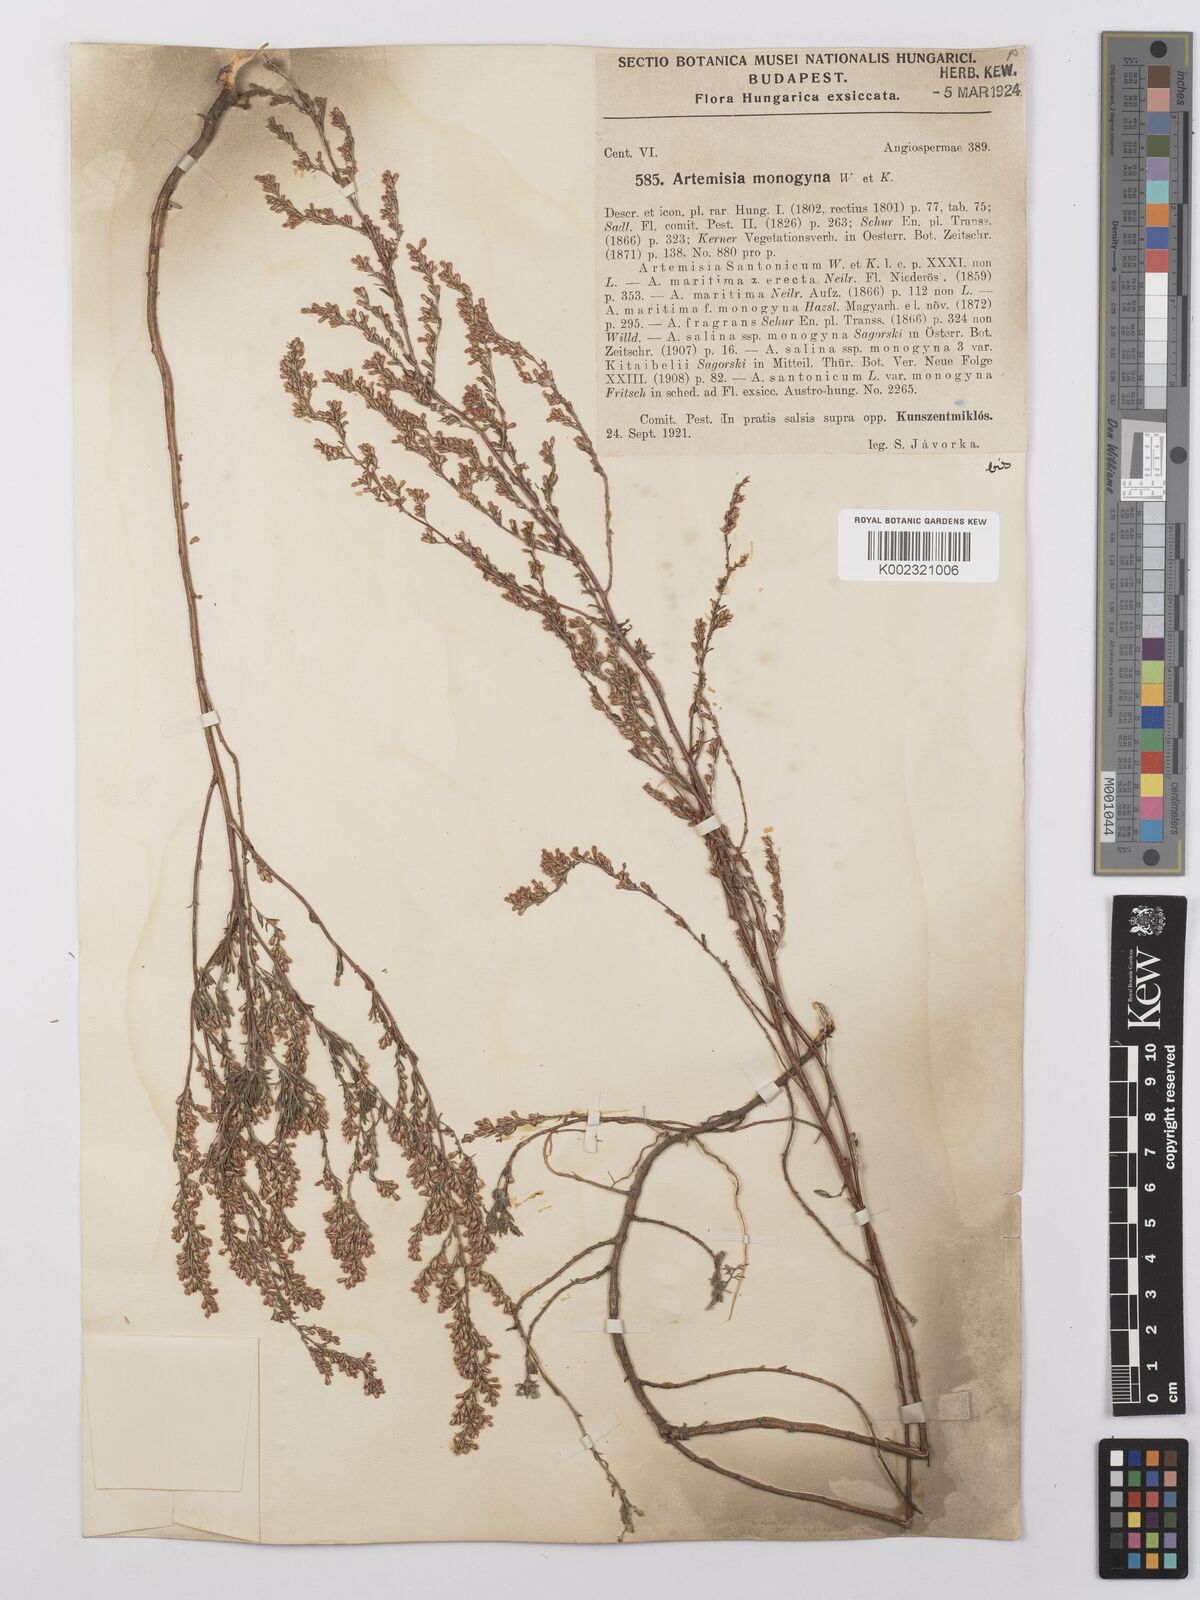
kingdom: Plantae
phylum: Tracheophyta
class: Magnoliopsida
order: Asterales
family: Asteraceae
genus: Artemisia
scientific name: Artemisia santonicum
